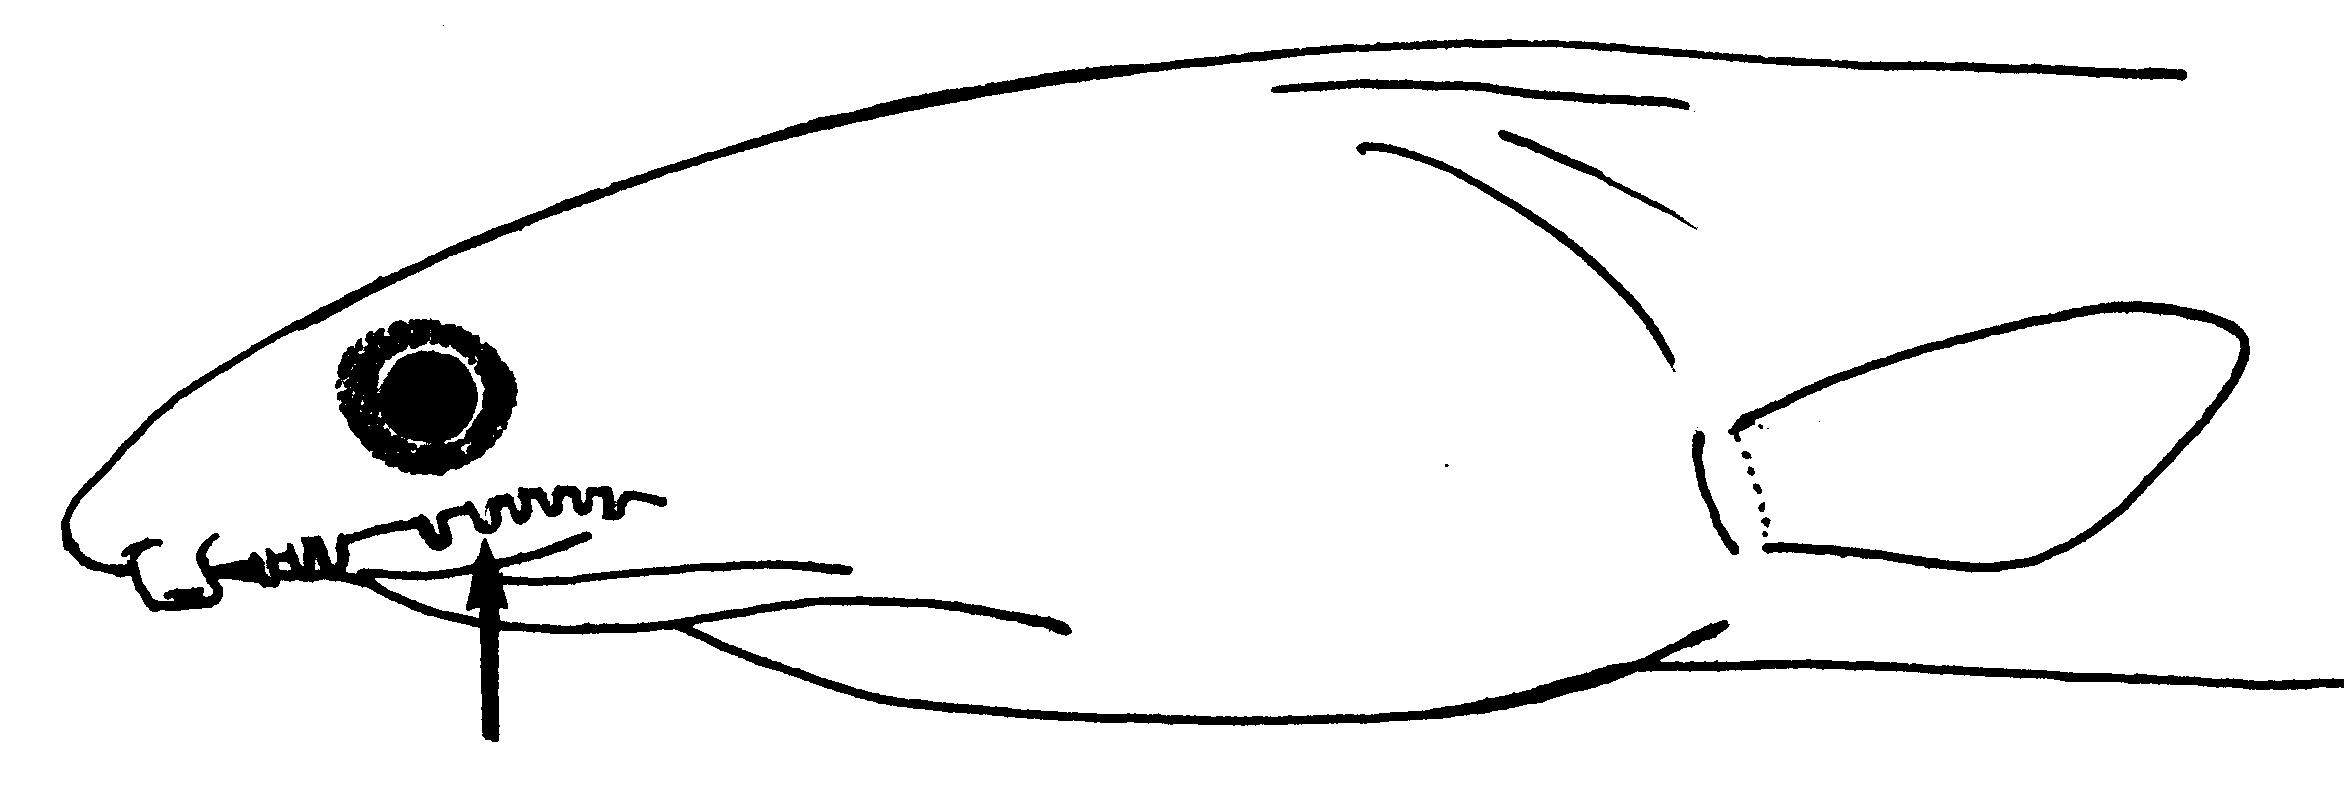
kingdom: Animalia
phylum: Chordata
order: Anguilliformes
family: Ophichthidae
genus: Cirrhimuraena
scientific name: Cirrhimuraena
